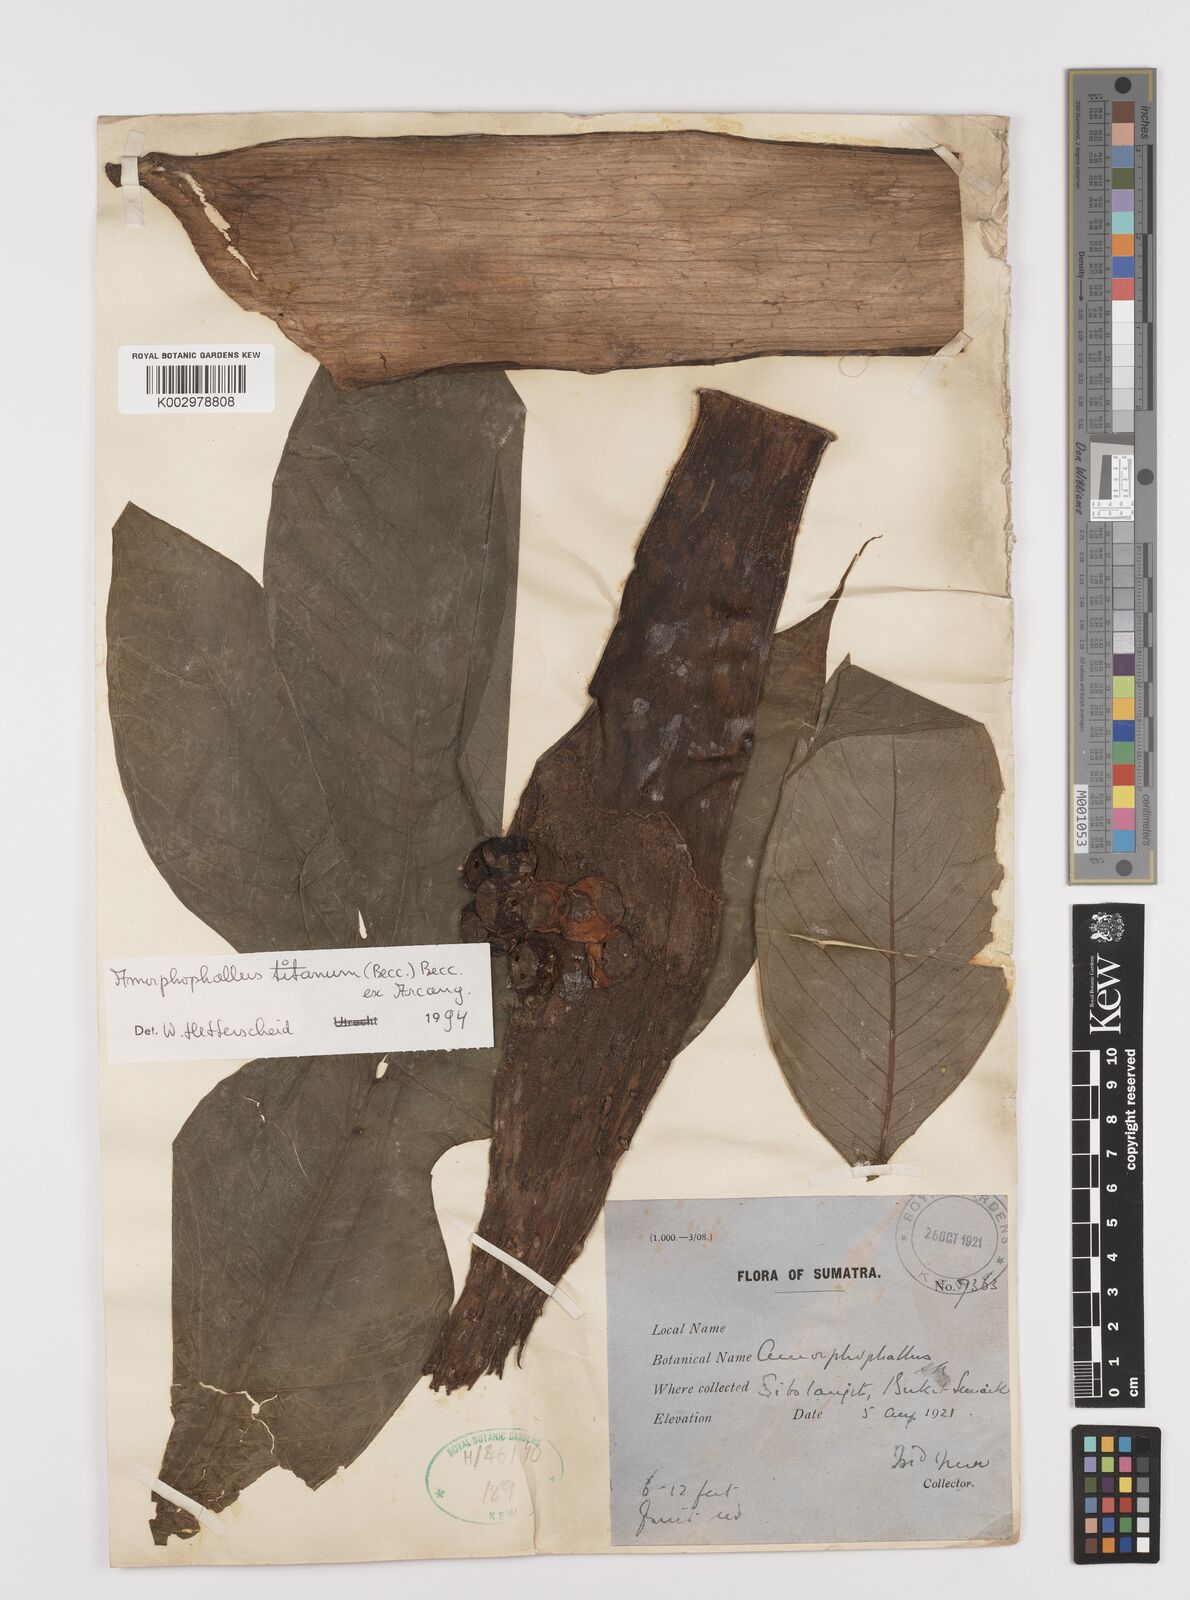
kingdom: Plantae
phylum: Tracheophyta
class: Liliopsida
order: Alismatales
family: Araceae
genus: Amorphophallus
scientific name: Amorphophallus titanum
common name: Titan arum
